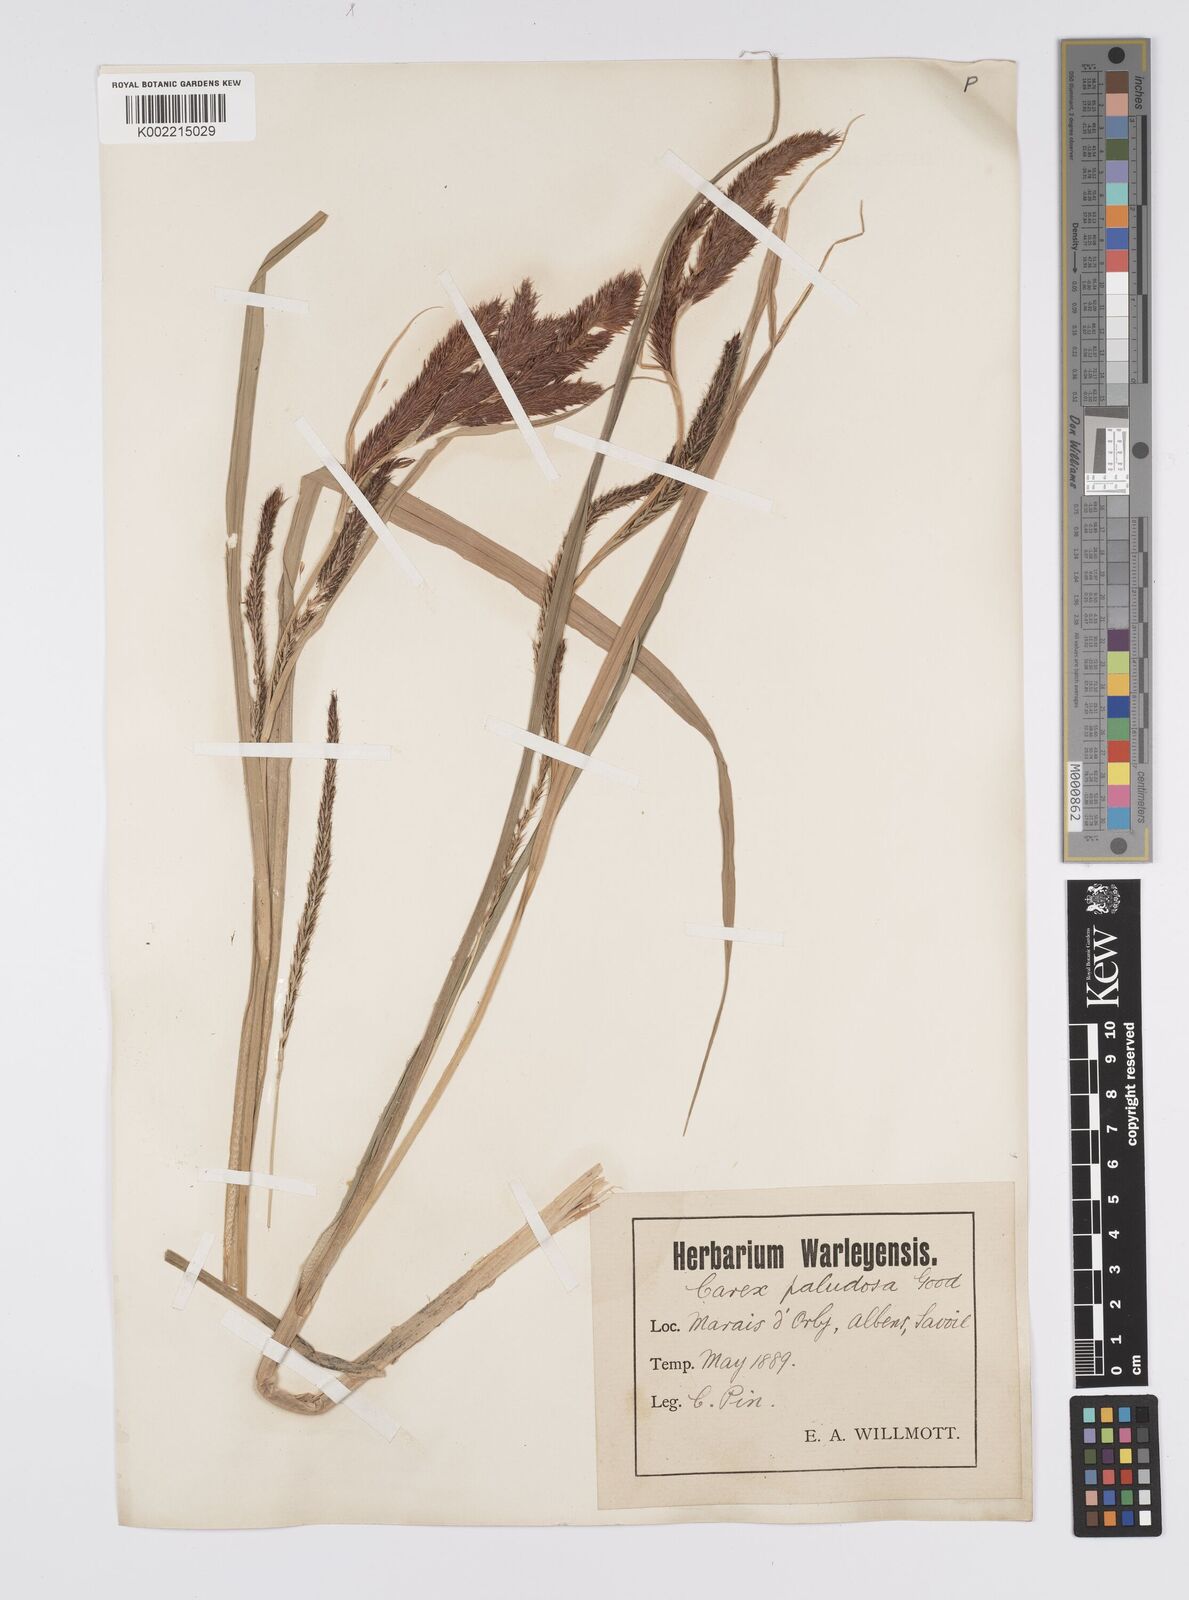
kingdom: Plantae
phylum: Tracheophyta
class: Liliopsida
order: Poales
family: Cyperaceae
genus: Carex
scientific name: Carex riparia
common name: Greater pond-sedge
